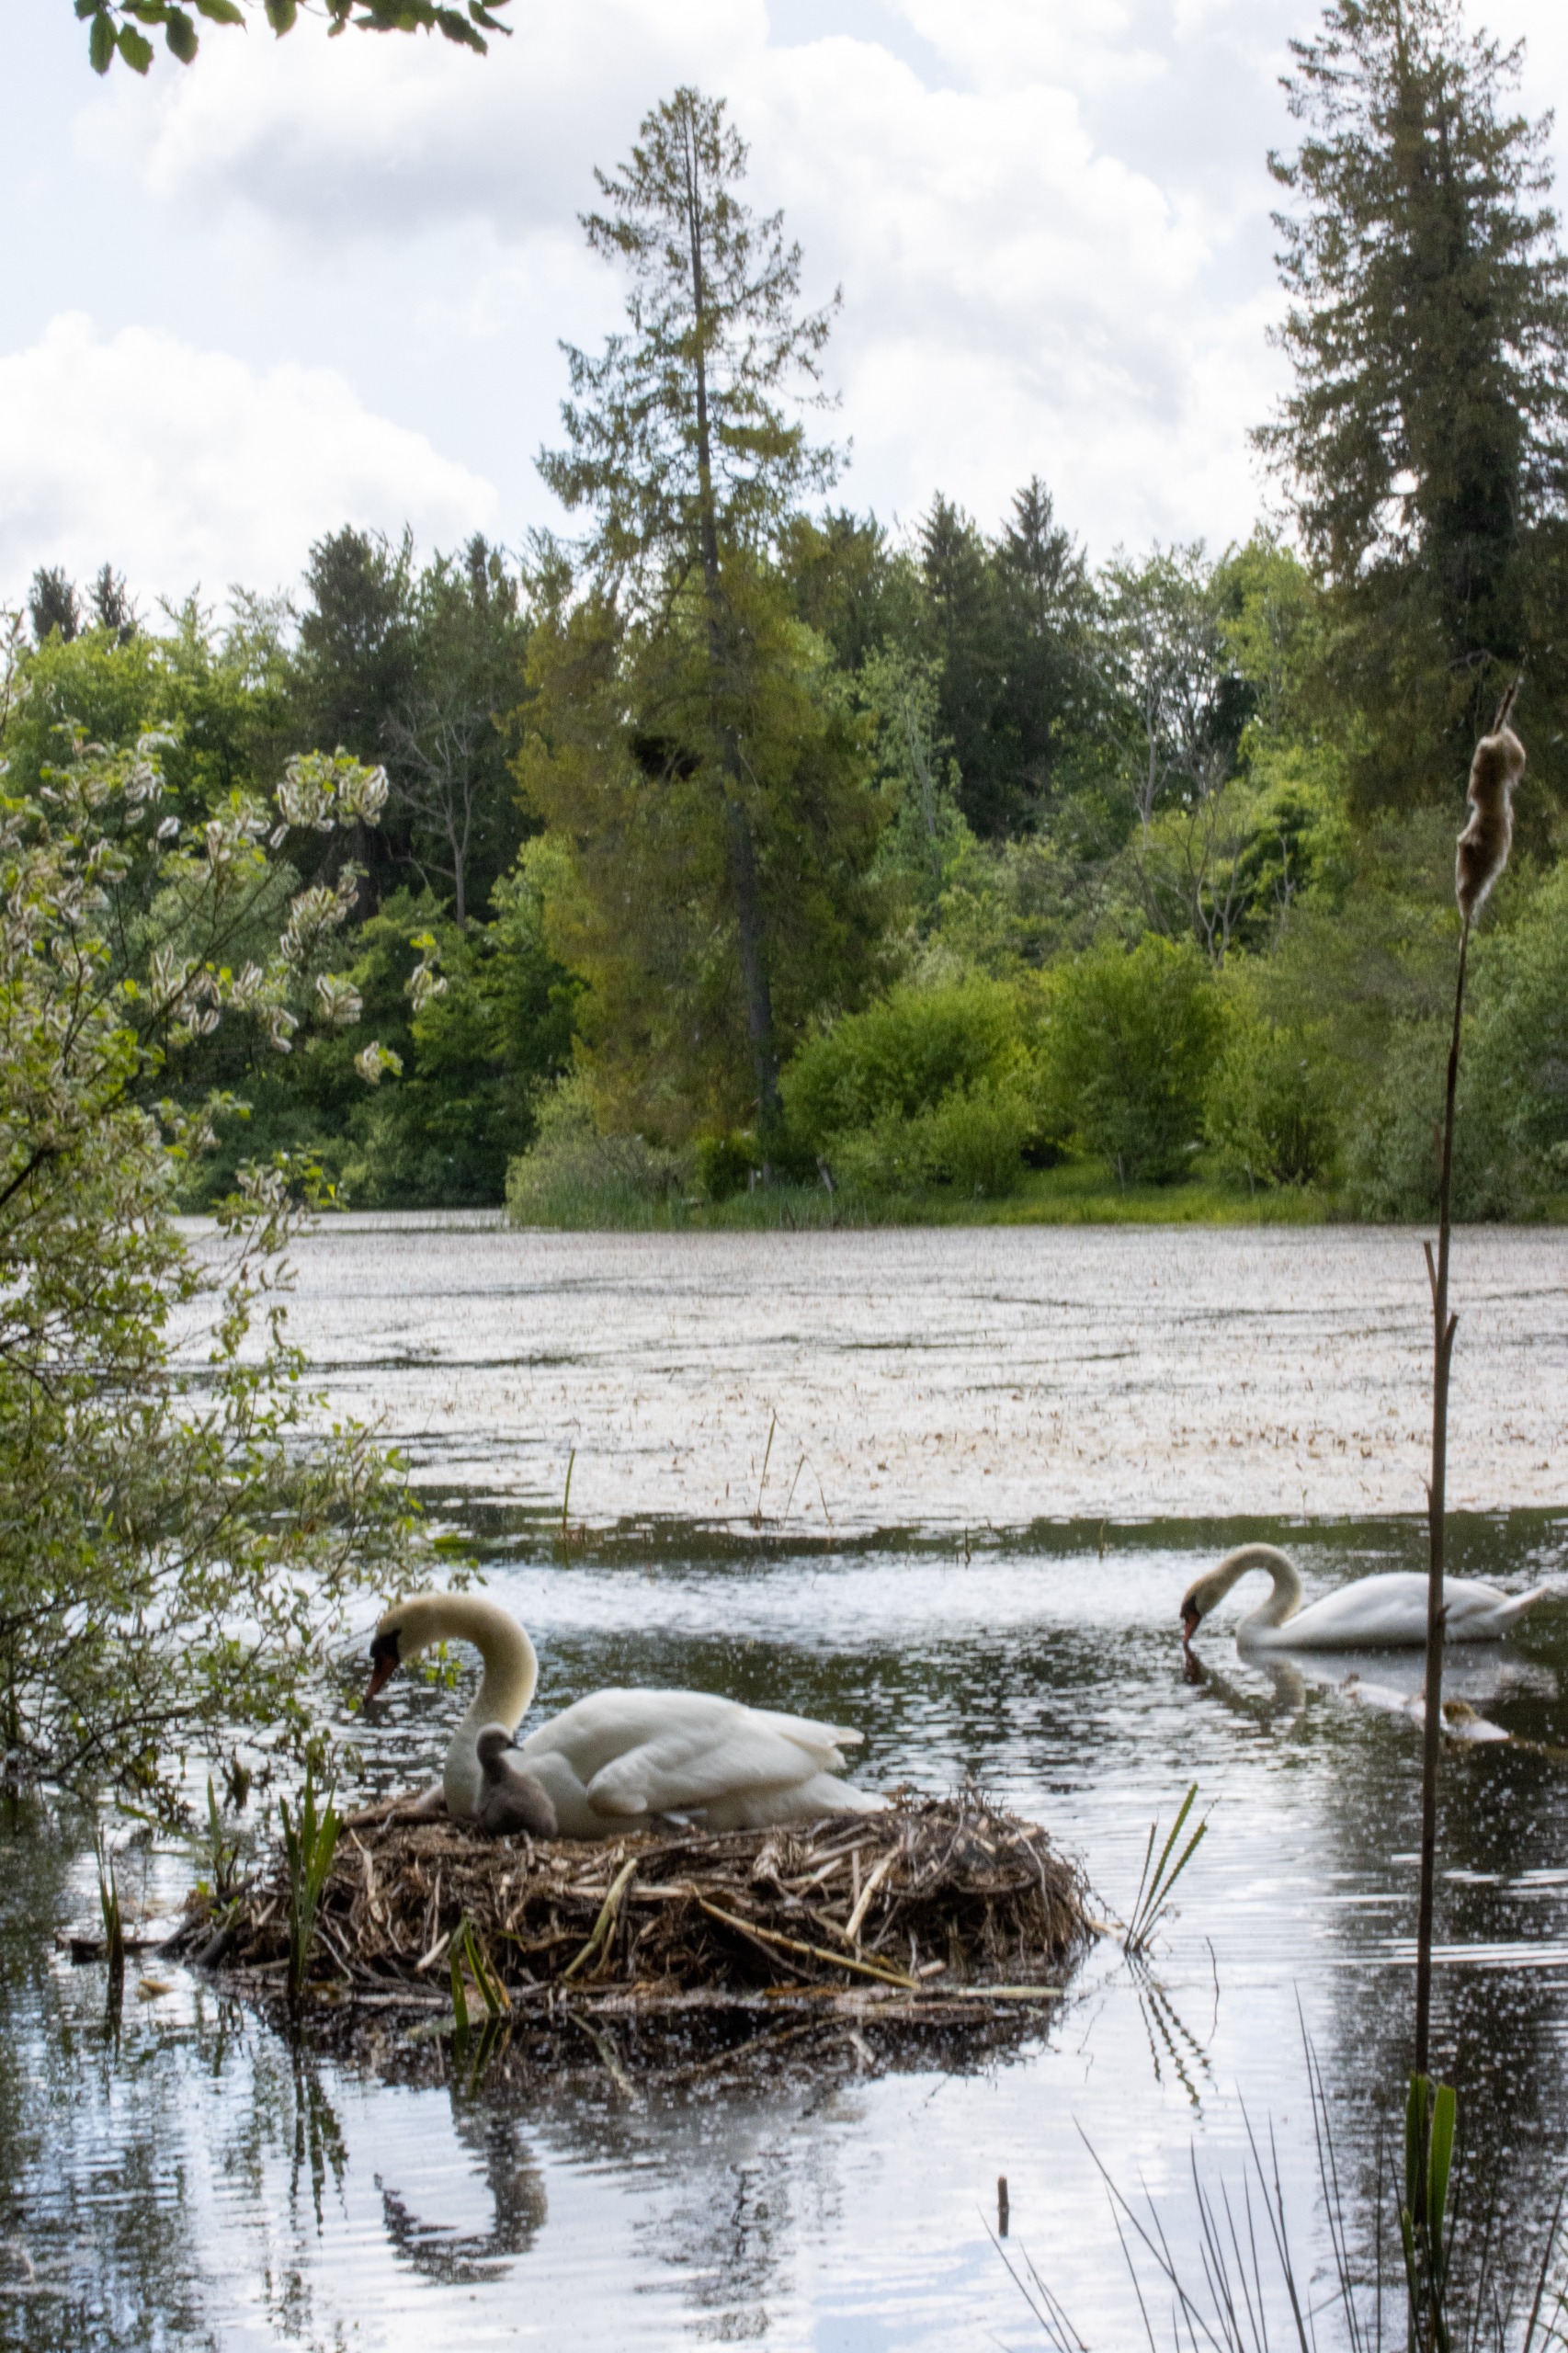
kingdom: Animalia
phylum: Chordata
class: Aves
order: Anseriformes
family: Anatidae
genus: Cygnus
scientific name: Cygnus olor
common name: Knopsvane
